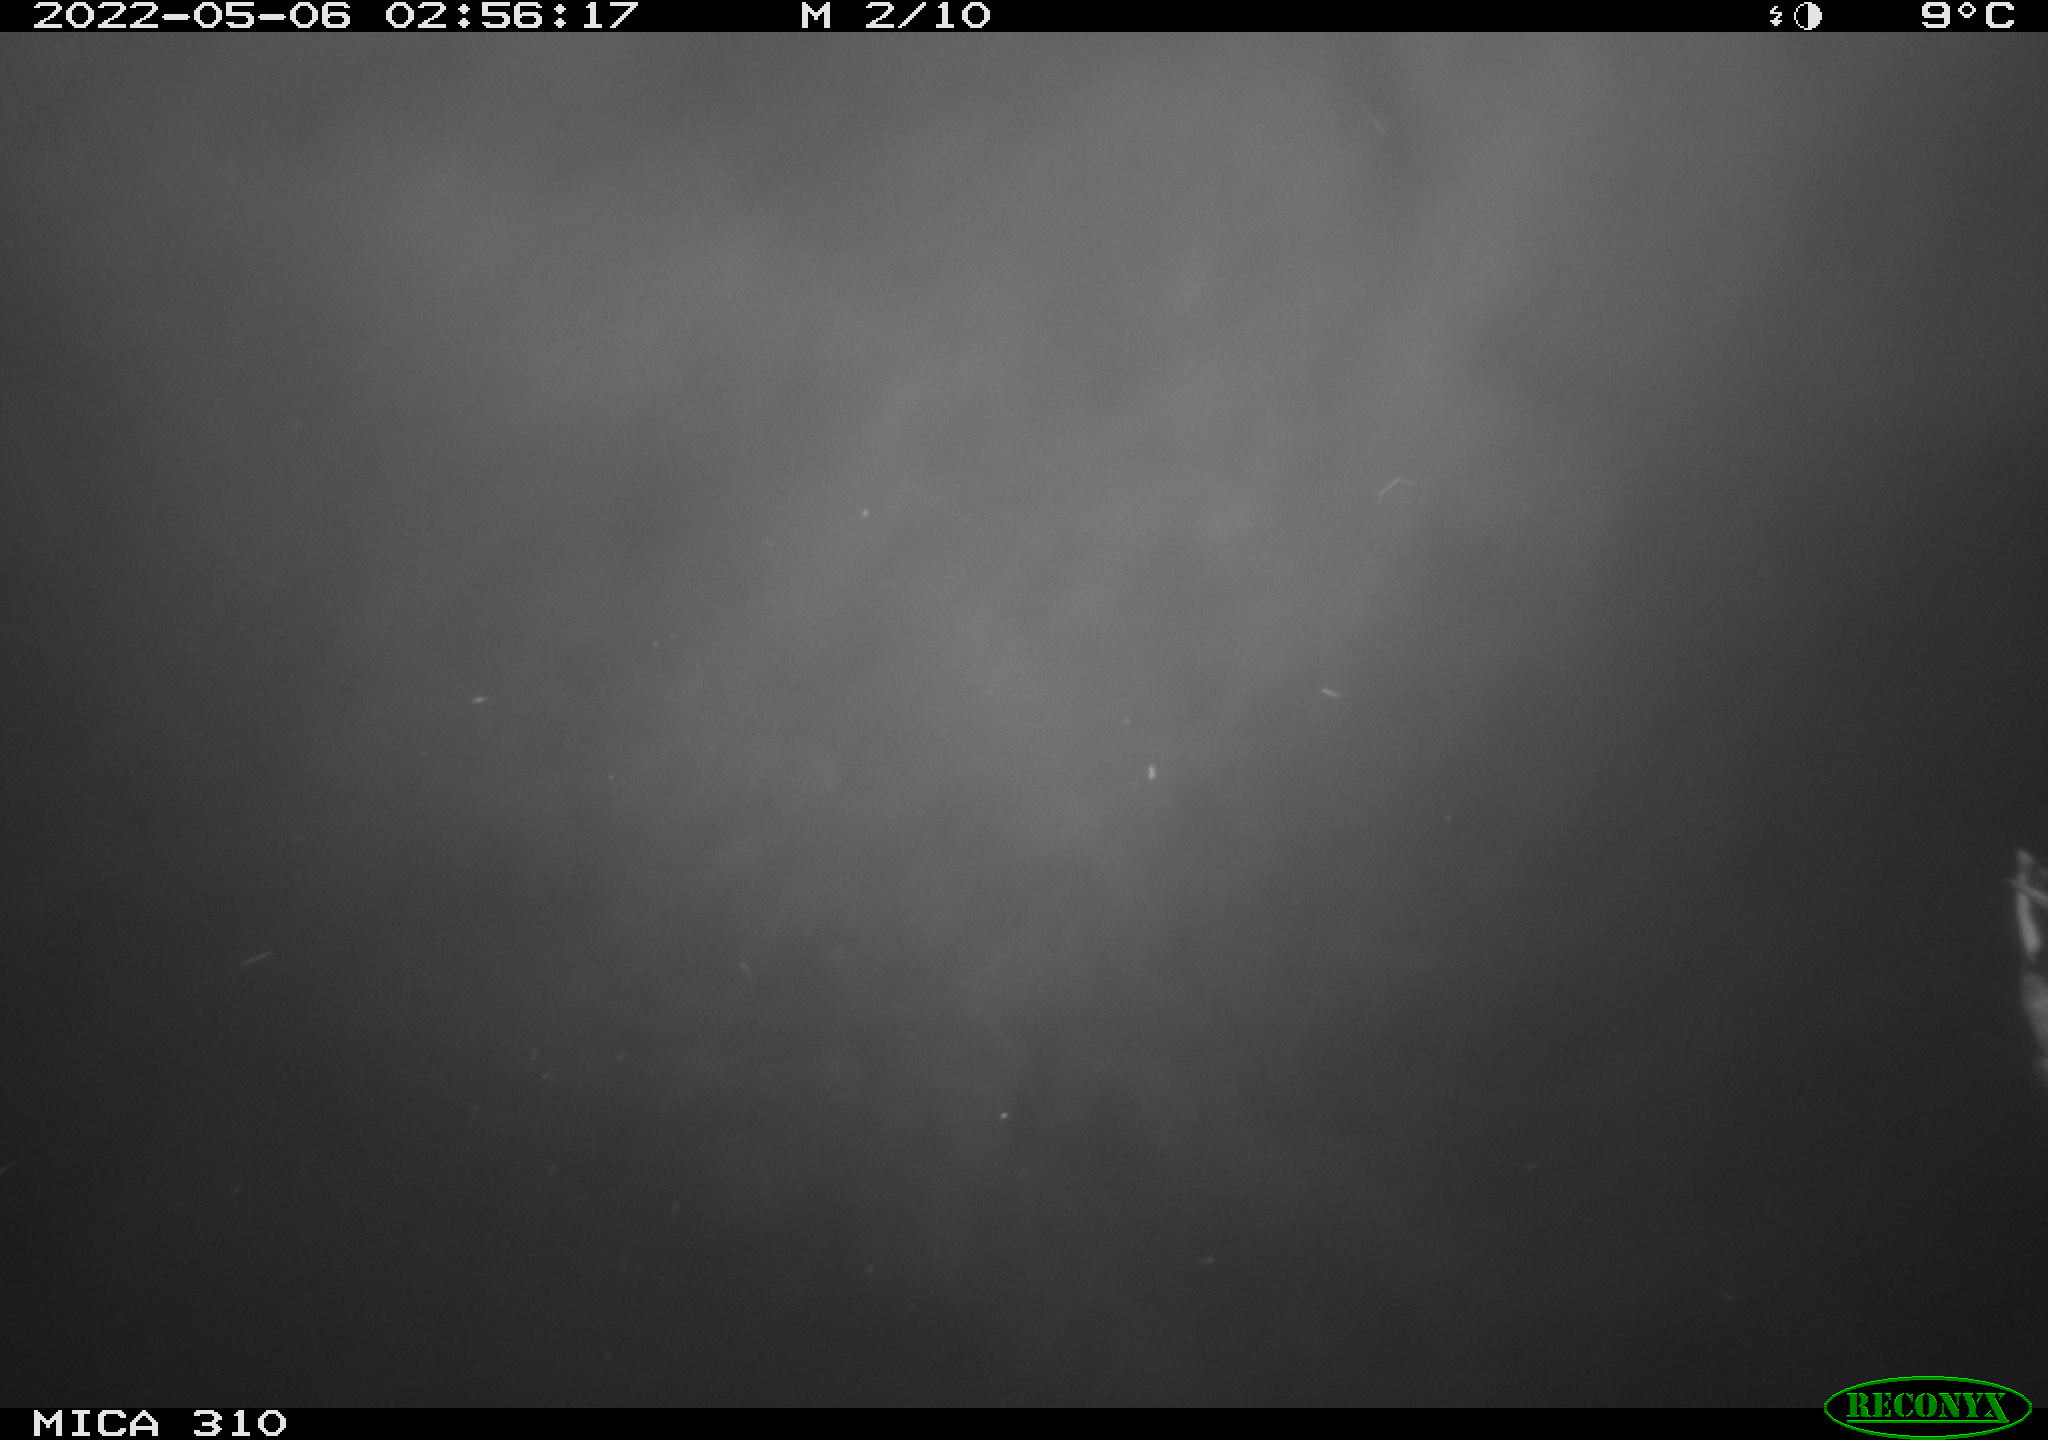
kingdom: Animalia
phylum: Chordata
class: Aves
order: Anseriformes
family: Anatidae
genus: Anas
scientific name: Anas platyrhynchos
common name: Mallard
